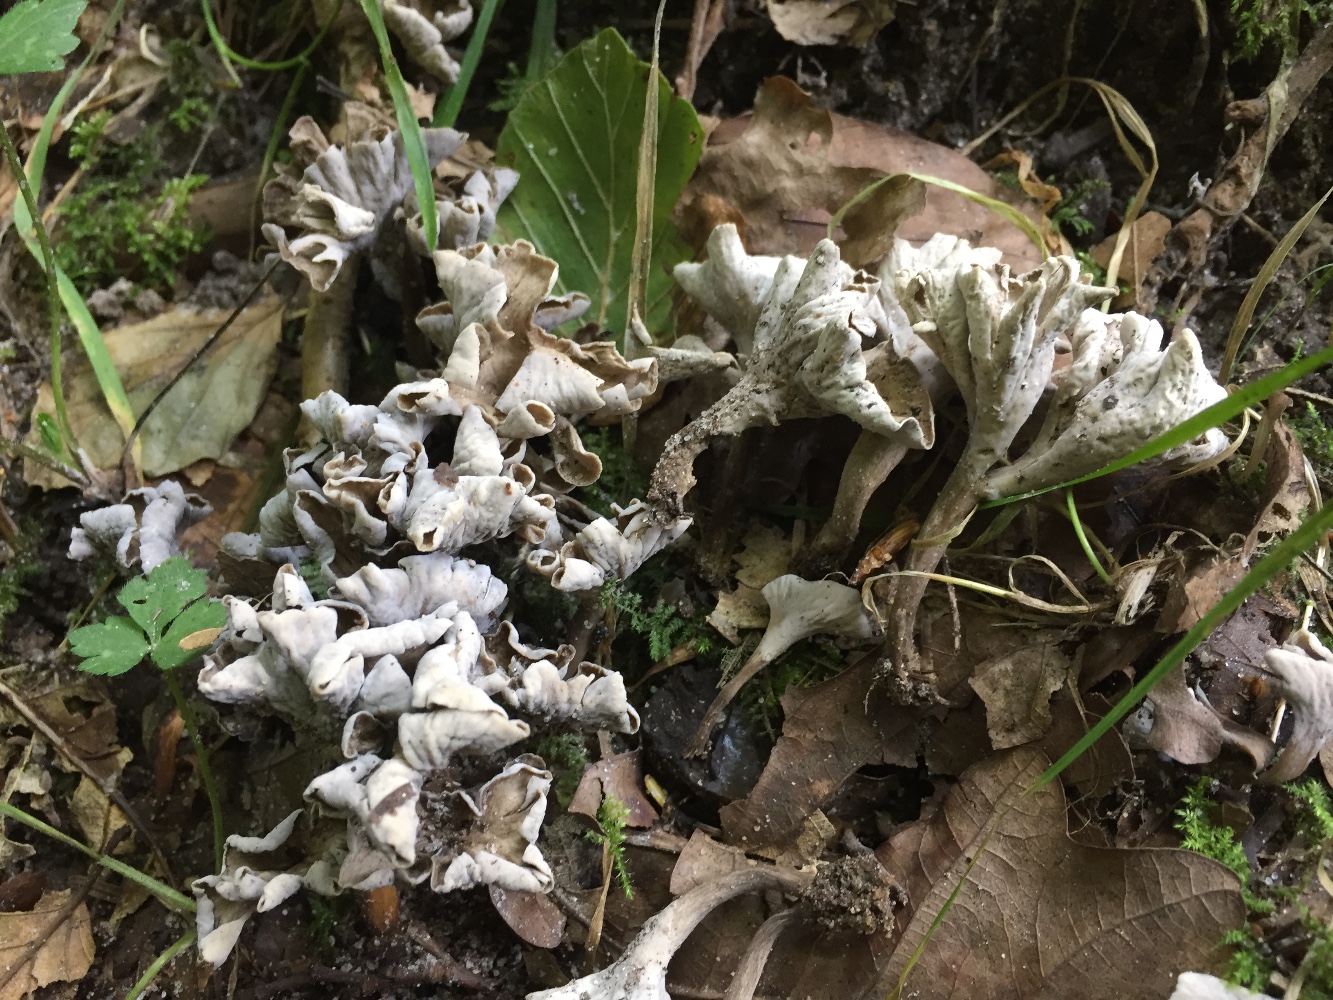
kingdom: Fungi
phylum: Basidiomycota
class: Agaricomycetes
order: Cantharellales
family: Hydnaceae
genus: Craterellus
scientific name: Craterellus undulatus
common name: liden kantarel
